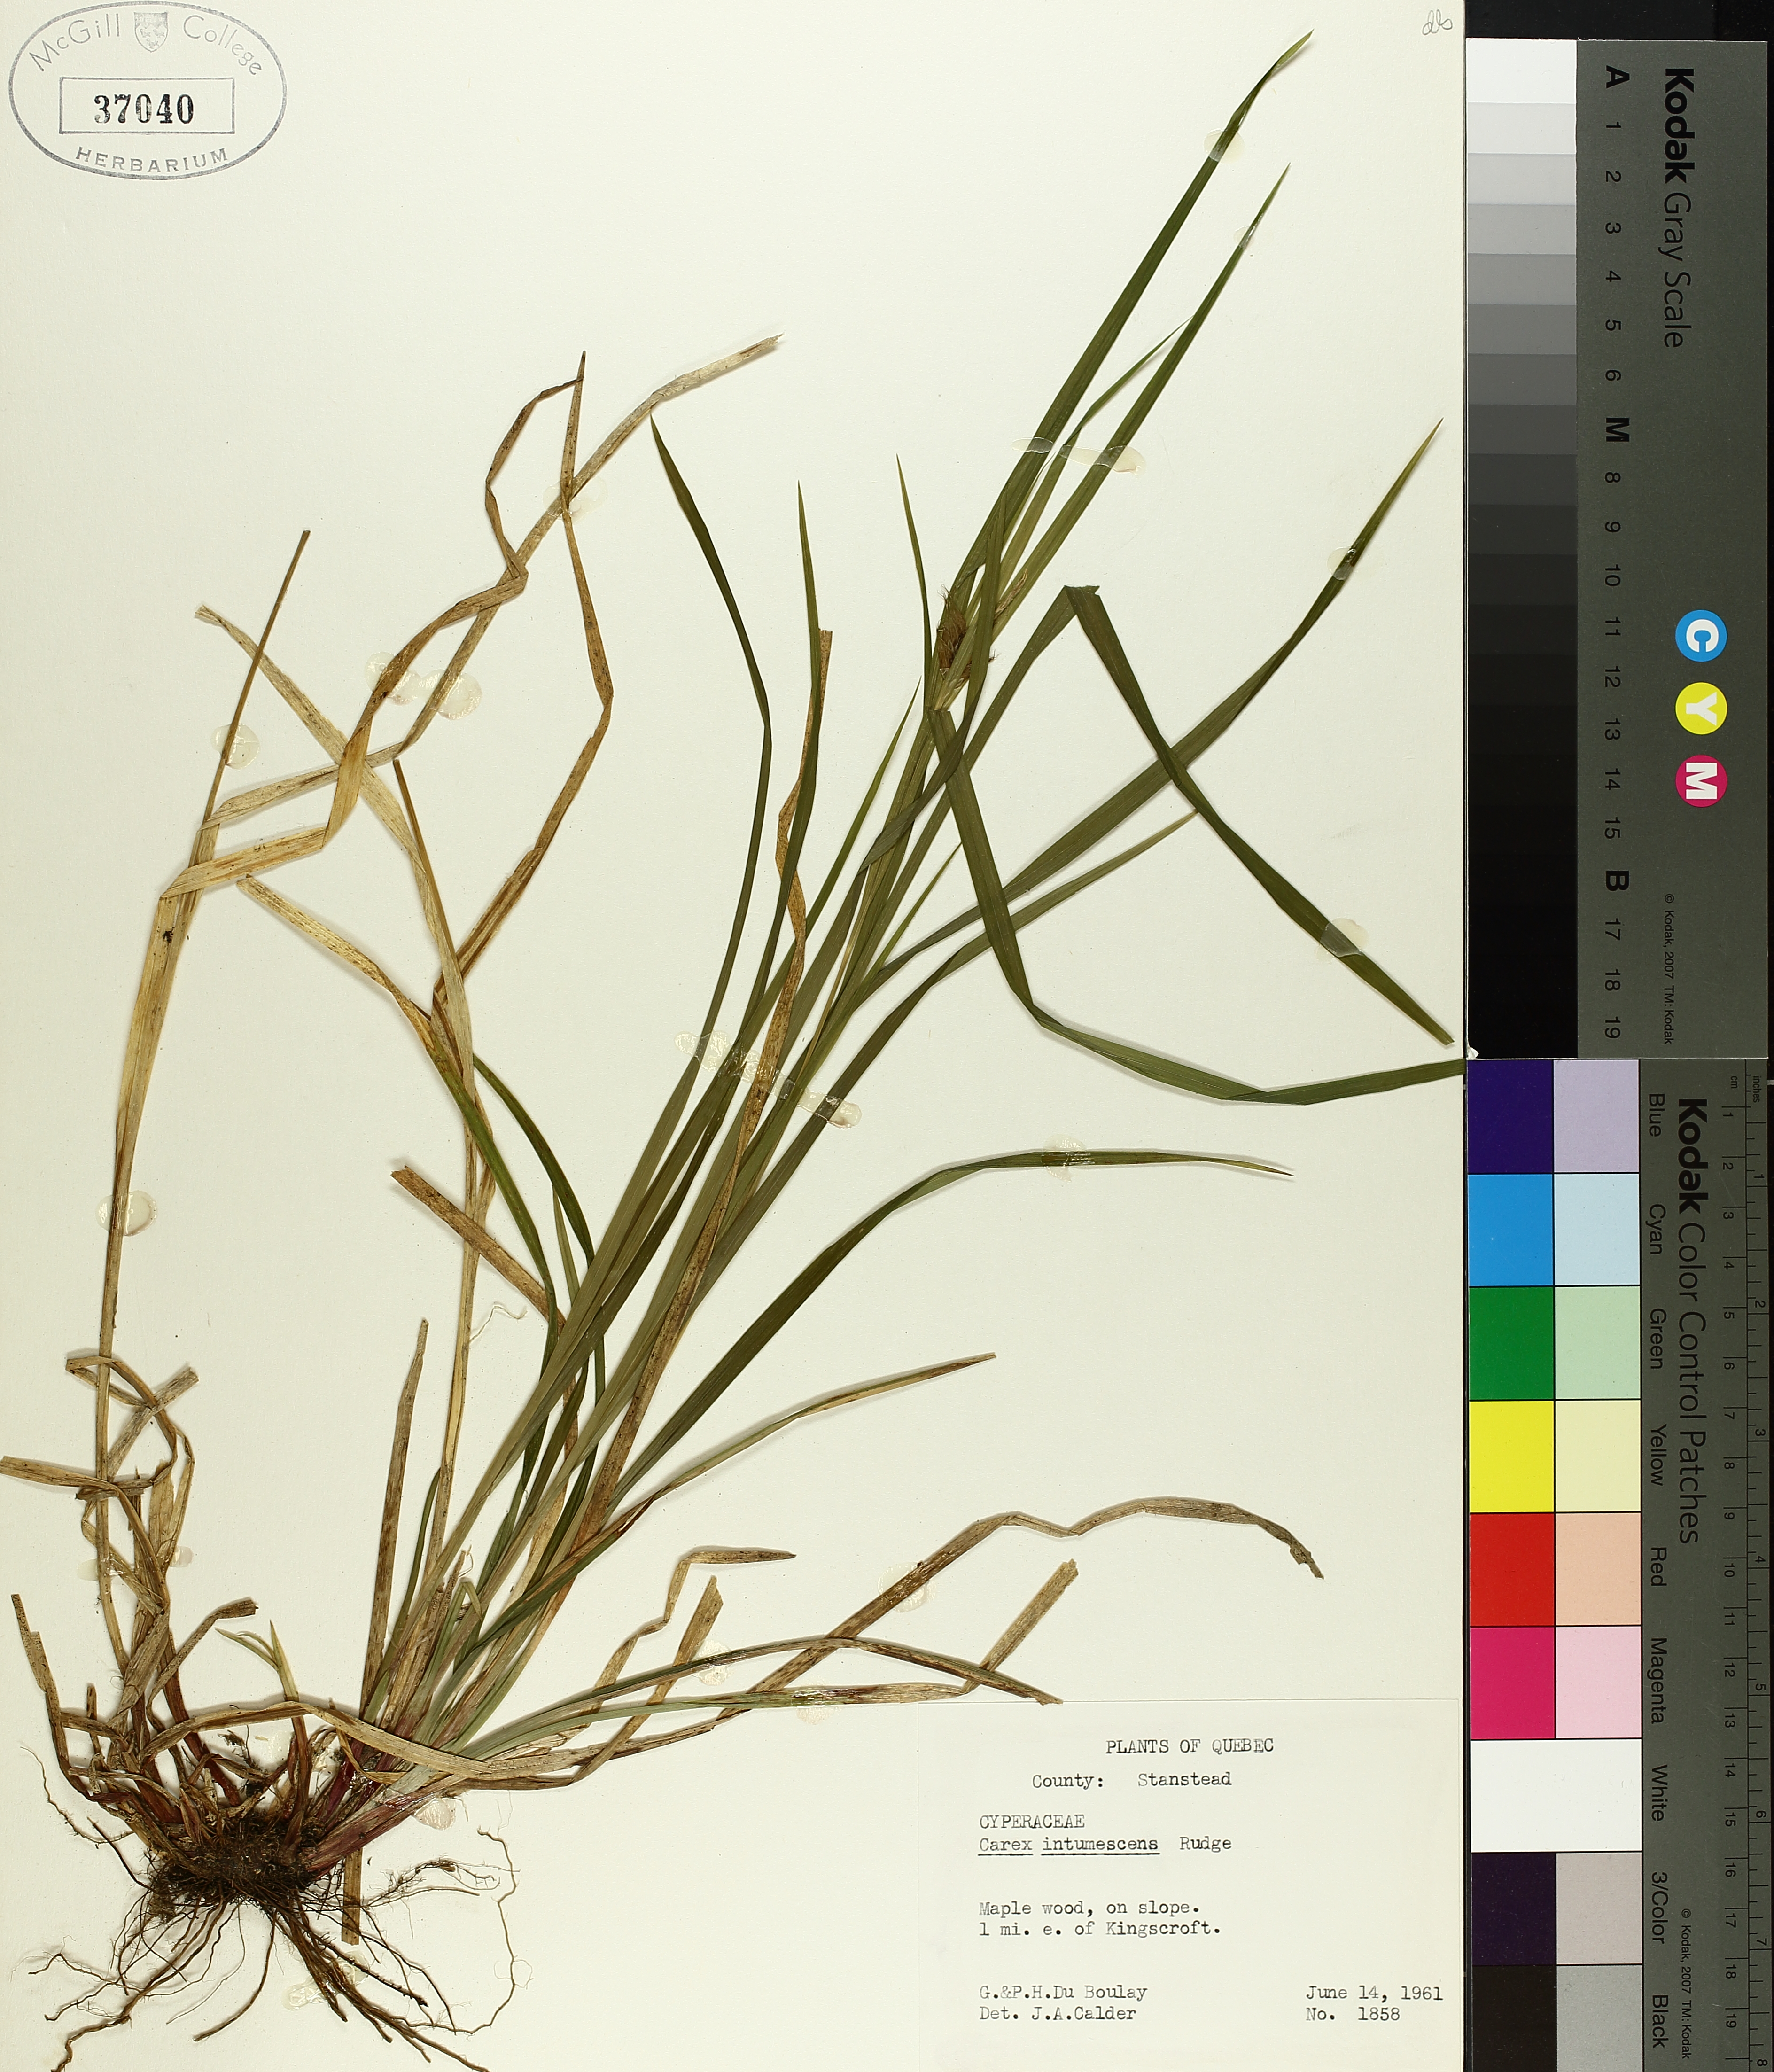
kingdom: Plantae
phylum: Tracheophyta
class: Liliopsida
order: Poales
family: Cyperaceae
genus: Carex
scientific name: Carex intumescens
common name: Greater bladder sedge
